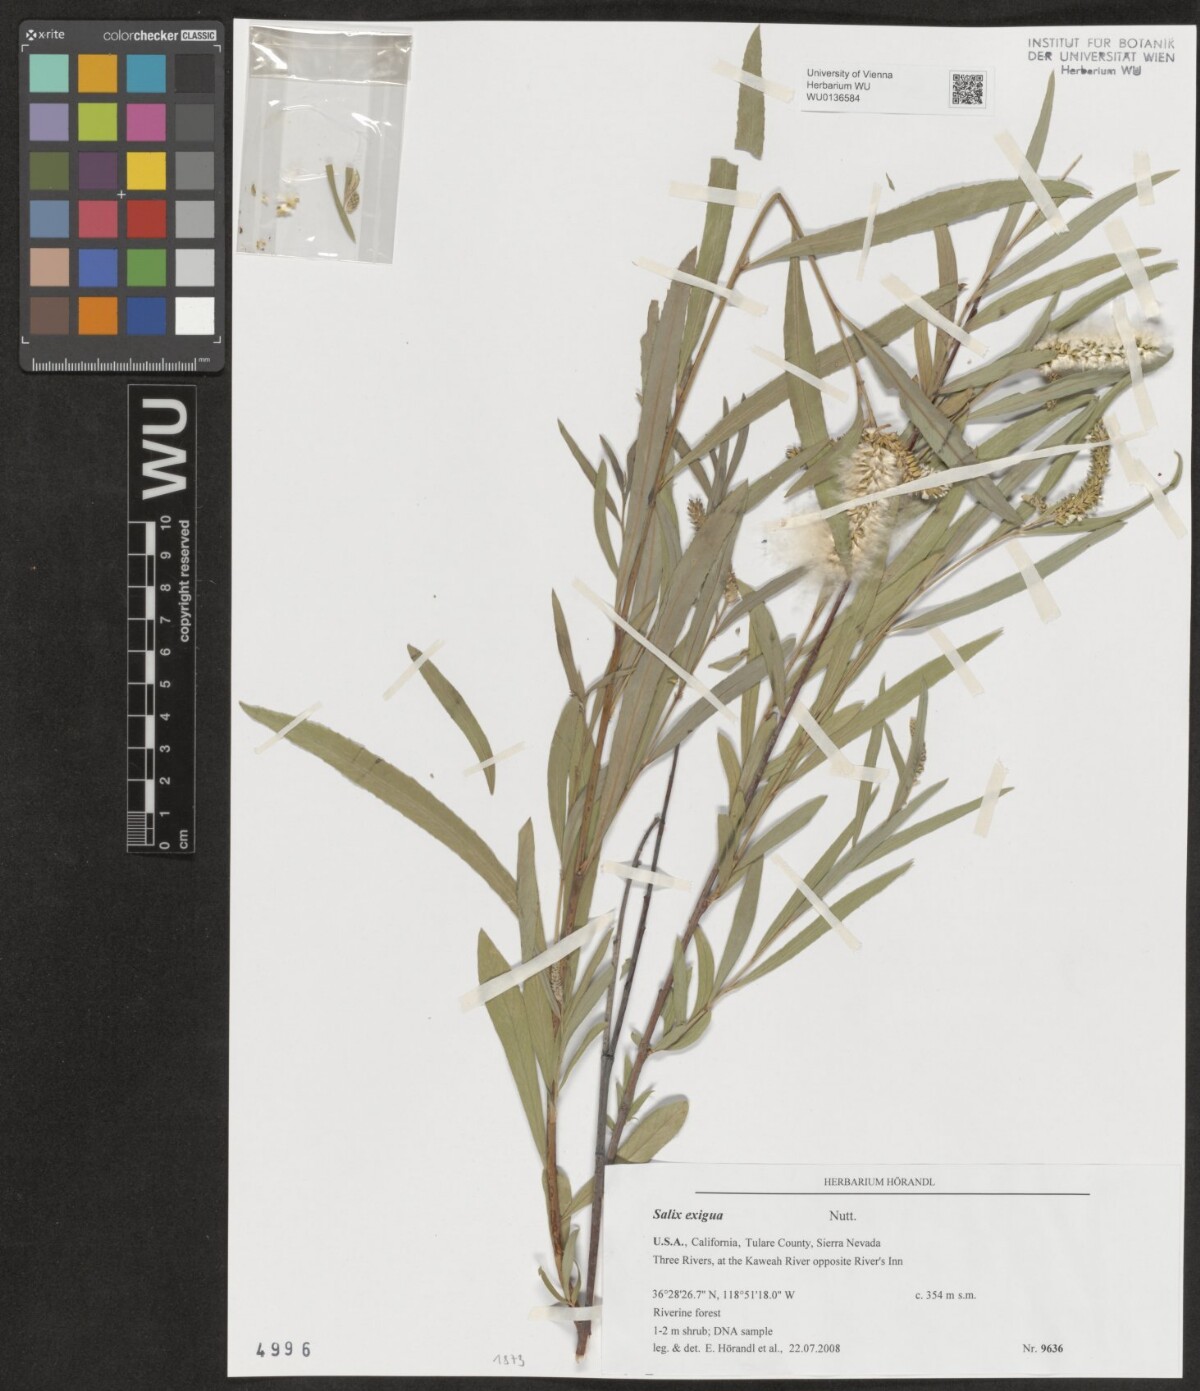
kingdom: Plantae
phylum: Tracheophyta
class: Magnoliopsida
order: Malpighiales
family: Salicaceae
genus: Salix
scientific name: Salix exigua
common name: Coyote willow
